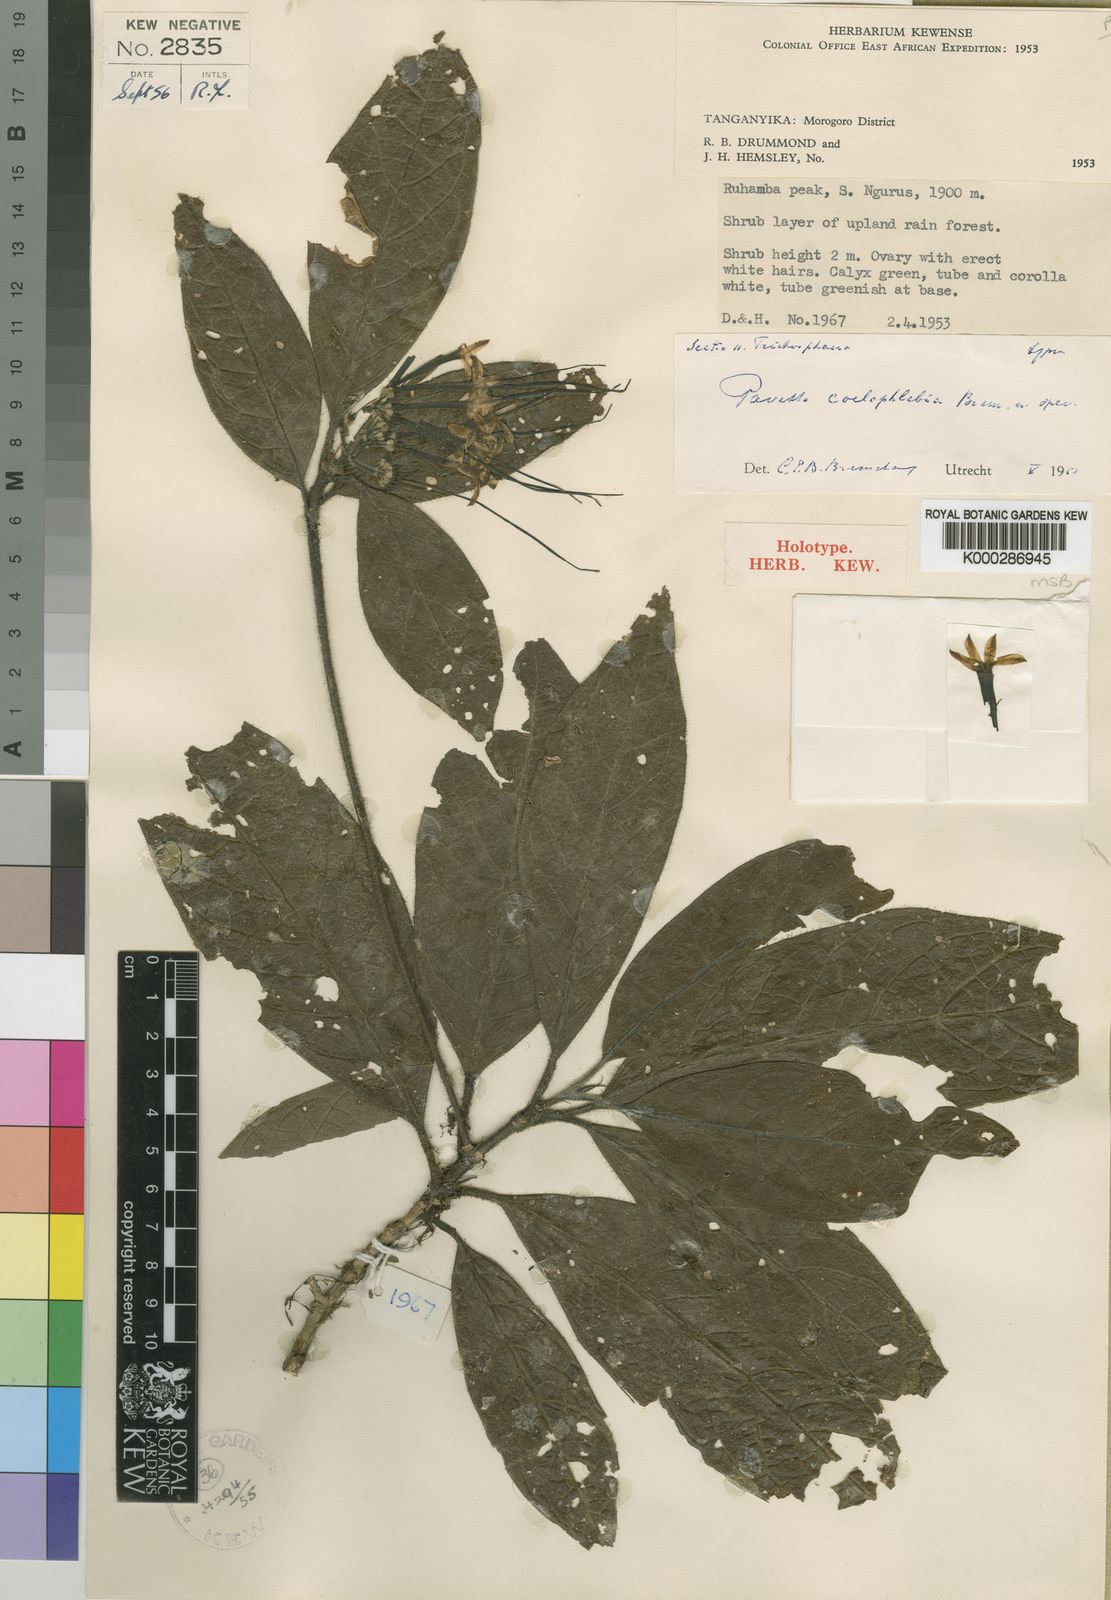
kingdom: Plantae
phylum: Tracheophyta
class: Magnoliopsida
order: Gentianales
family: Rubiaceae
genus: Pavetta
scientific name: Pavetta coelophlebia
